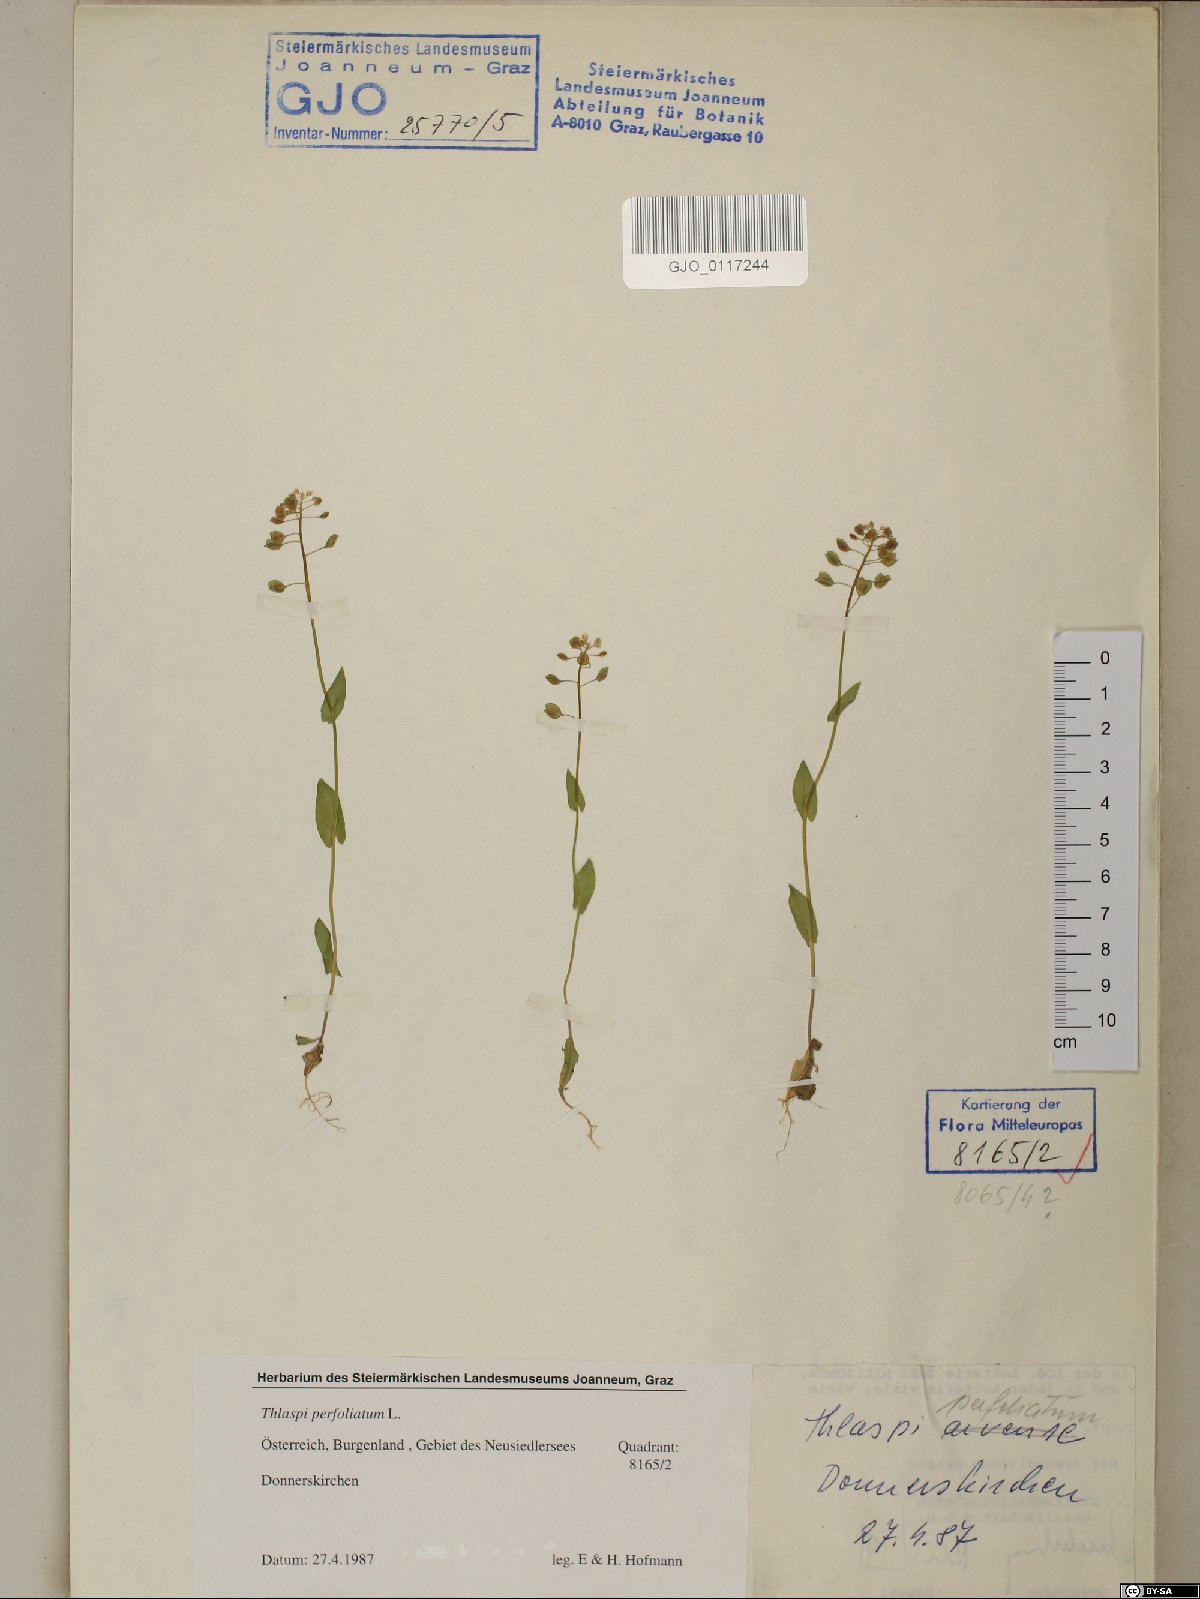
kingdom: Plantae
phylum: Tracheophyta
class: Magnoliopsida
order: Brassicales
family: Brassicaceae
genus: Noccaea
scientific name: Noccaea perfoliata
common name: Perfoliate pennycress
